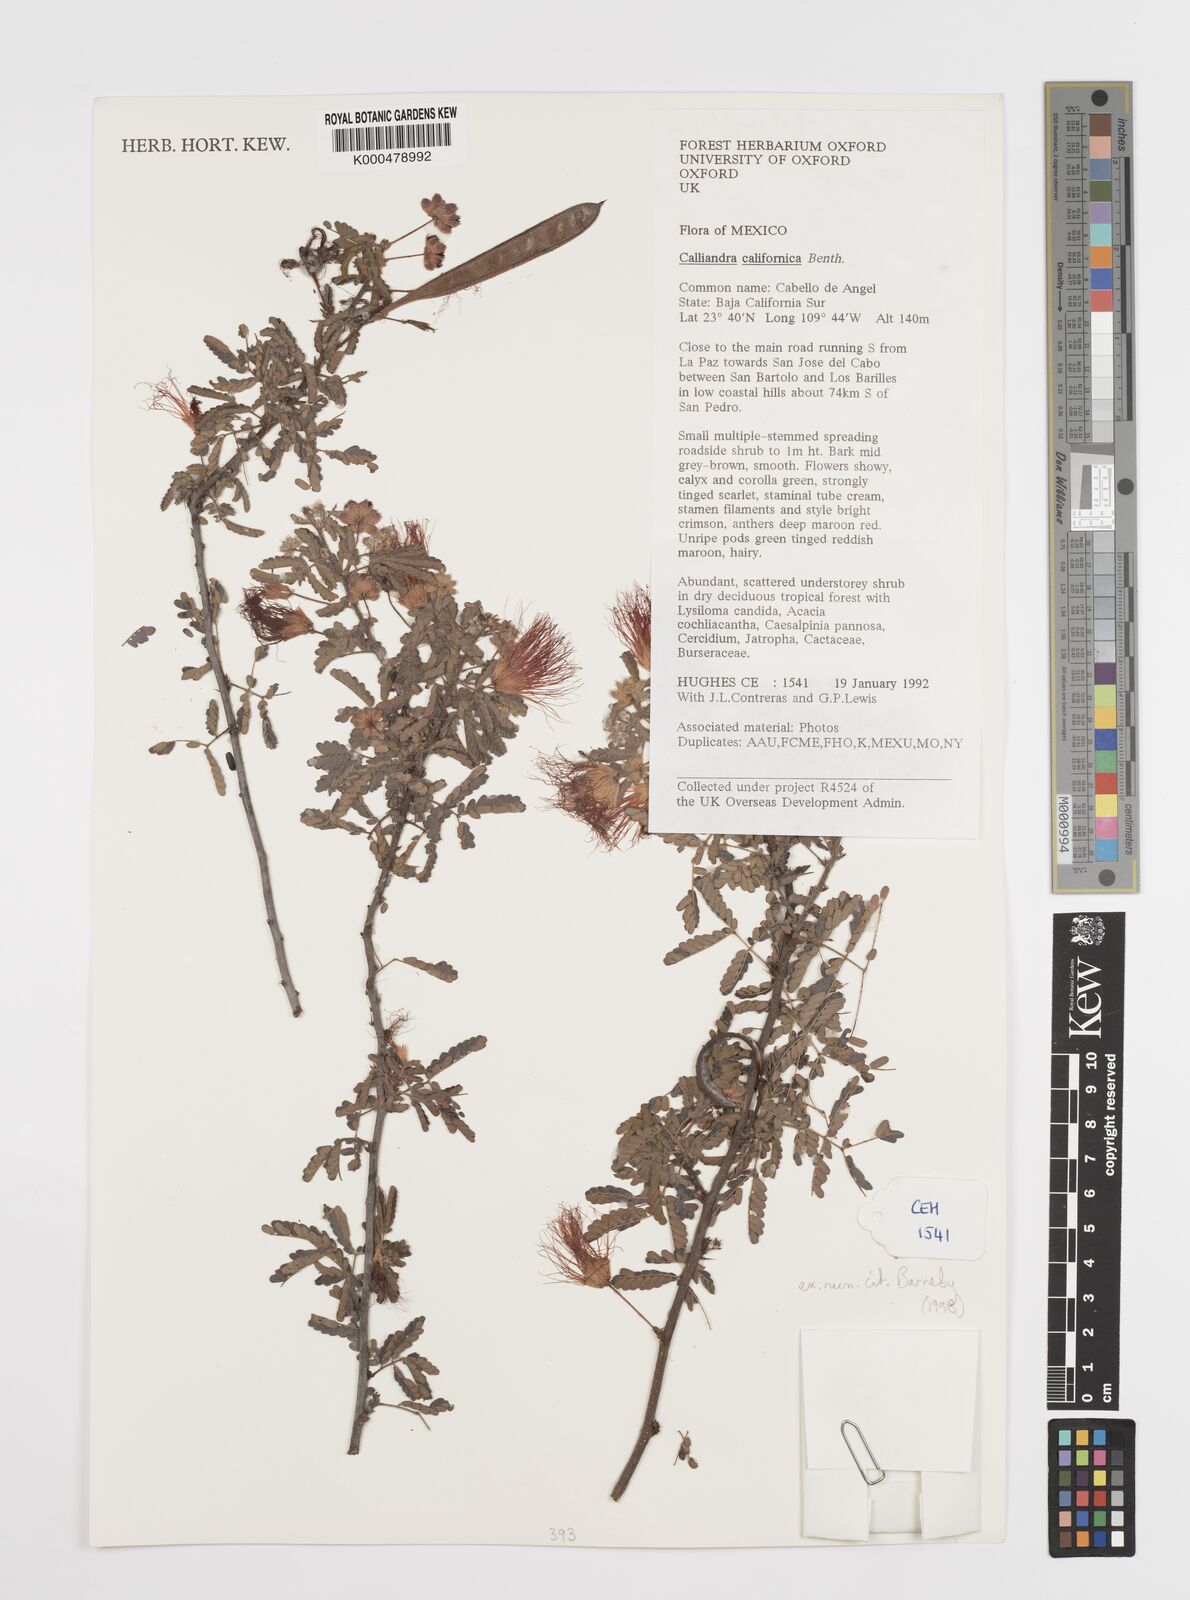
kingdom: Plantae
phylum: Tracheophyta
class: Magnoliopsida
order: Fabales
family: Fabaceae
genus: Calliandra
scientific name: Calliandra californica
